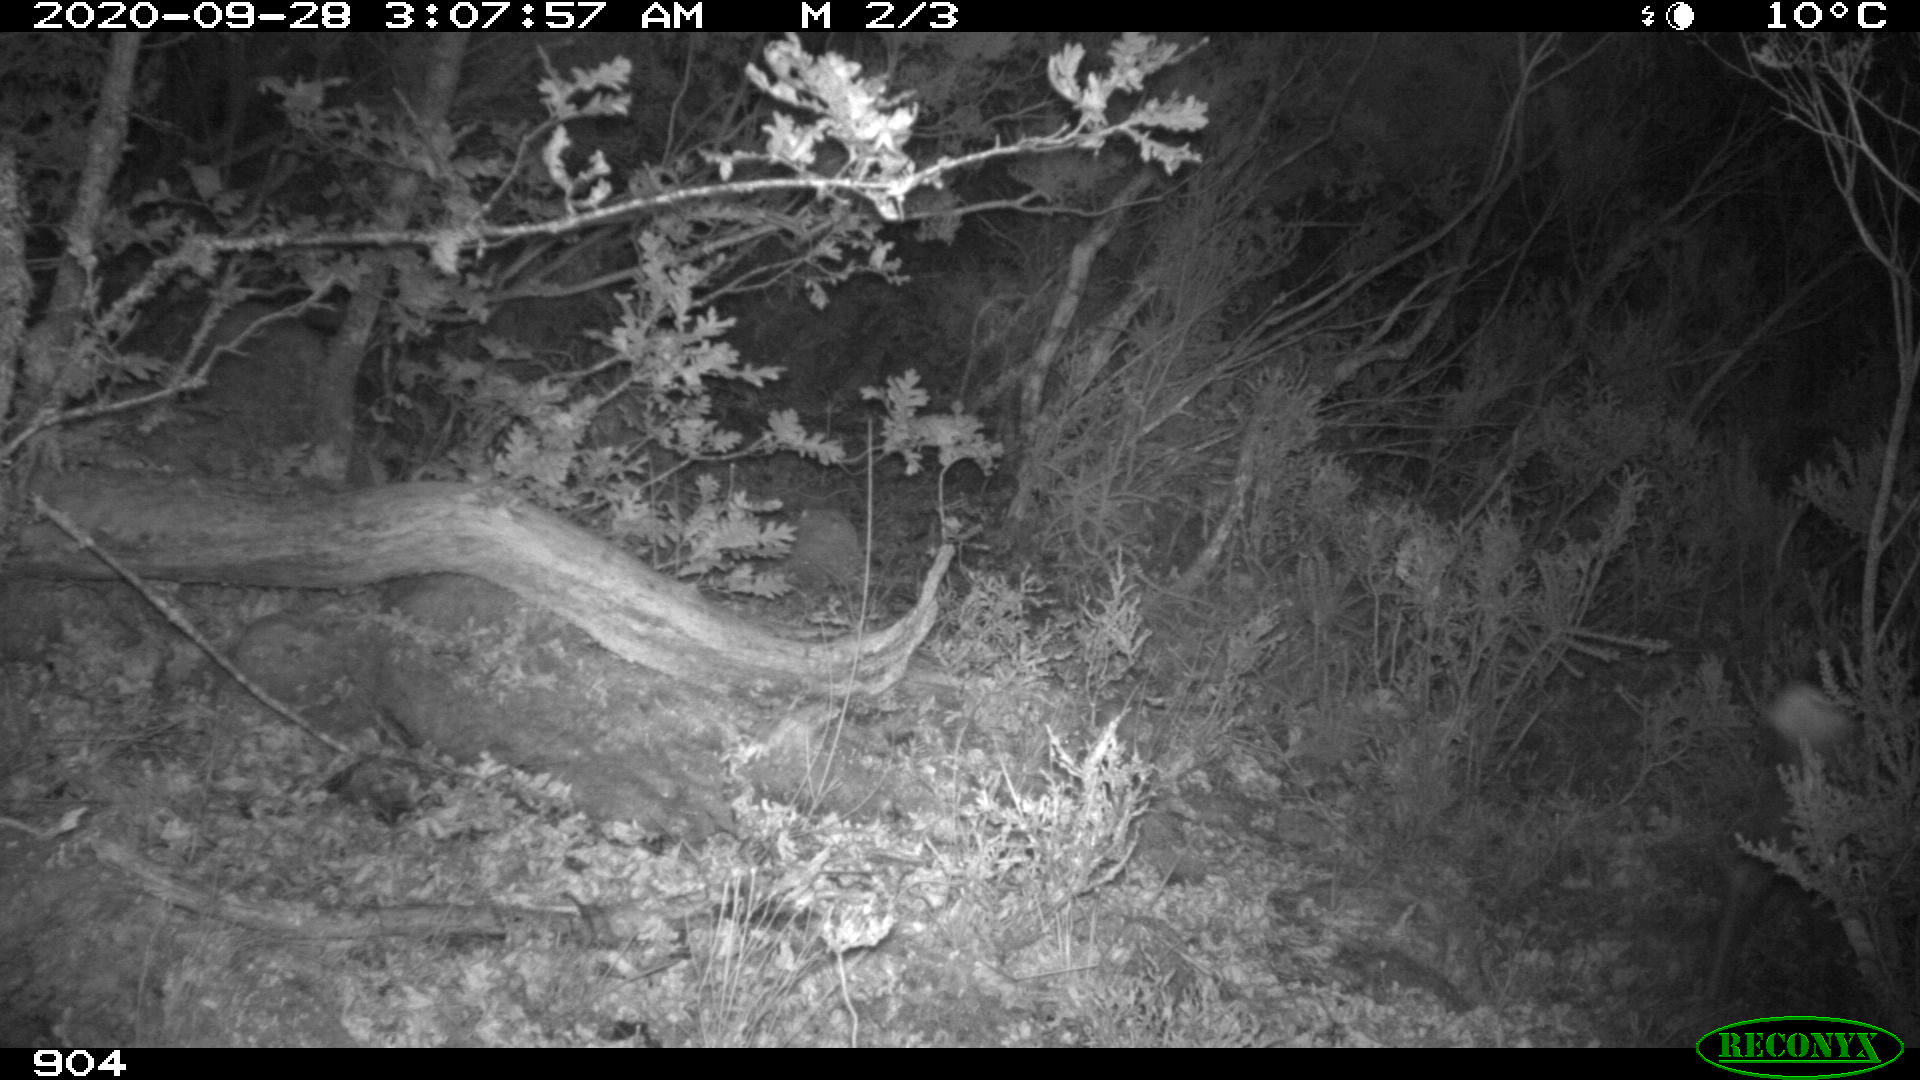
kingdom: Animalia
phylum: Chordata
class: Mammalia
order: Artiodactyla
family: Cervidae
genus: Capreolus
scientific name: Capreolus capreolus
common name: Western roe deer
